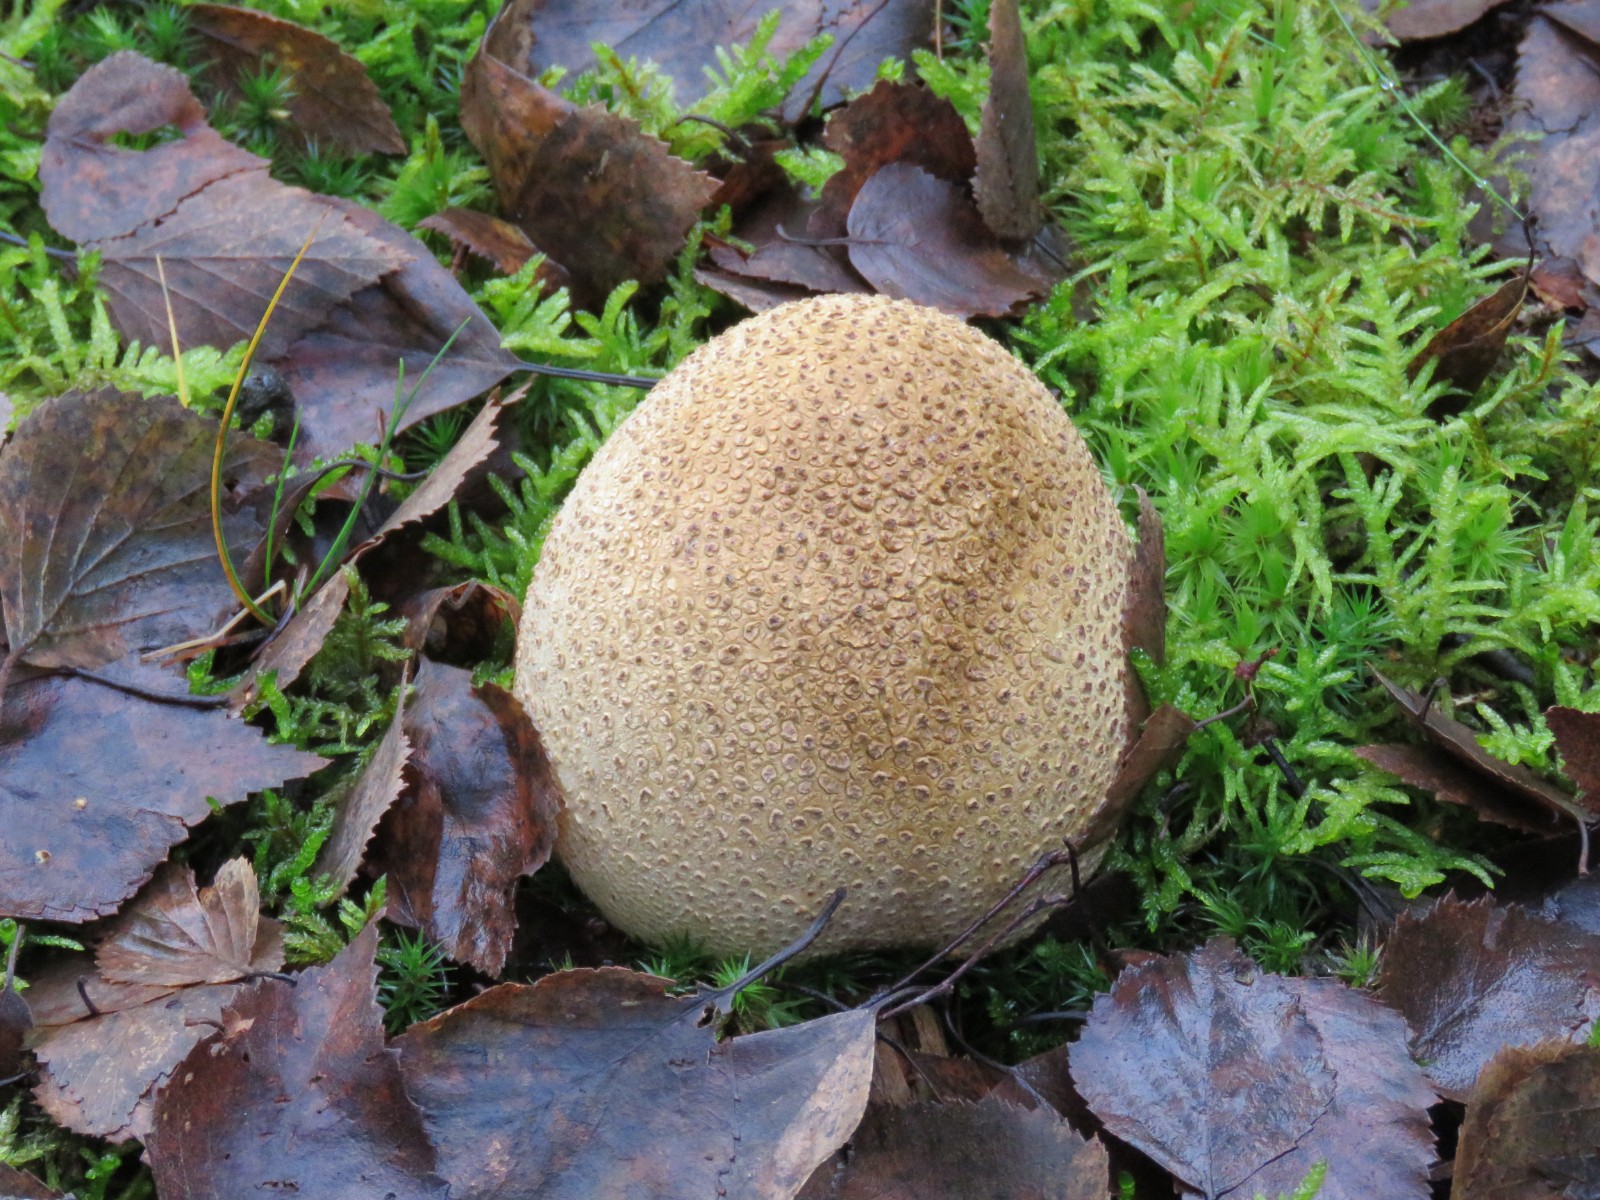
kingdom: Fungi
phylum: Basidiomycota
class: Agaricomycetes
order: Boletales
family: Sclerodermataceae
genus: Scleroderma
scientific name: Scleroderma citrinum
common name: almindelig bruskbold
